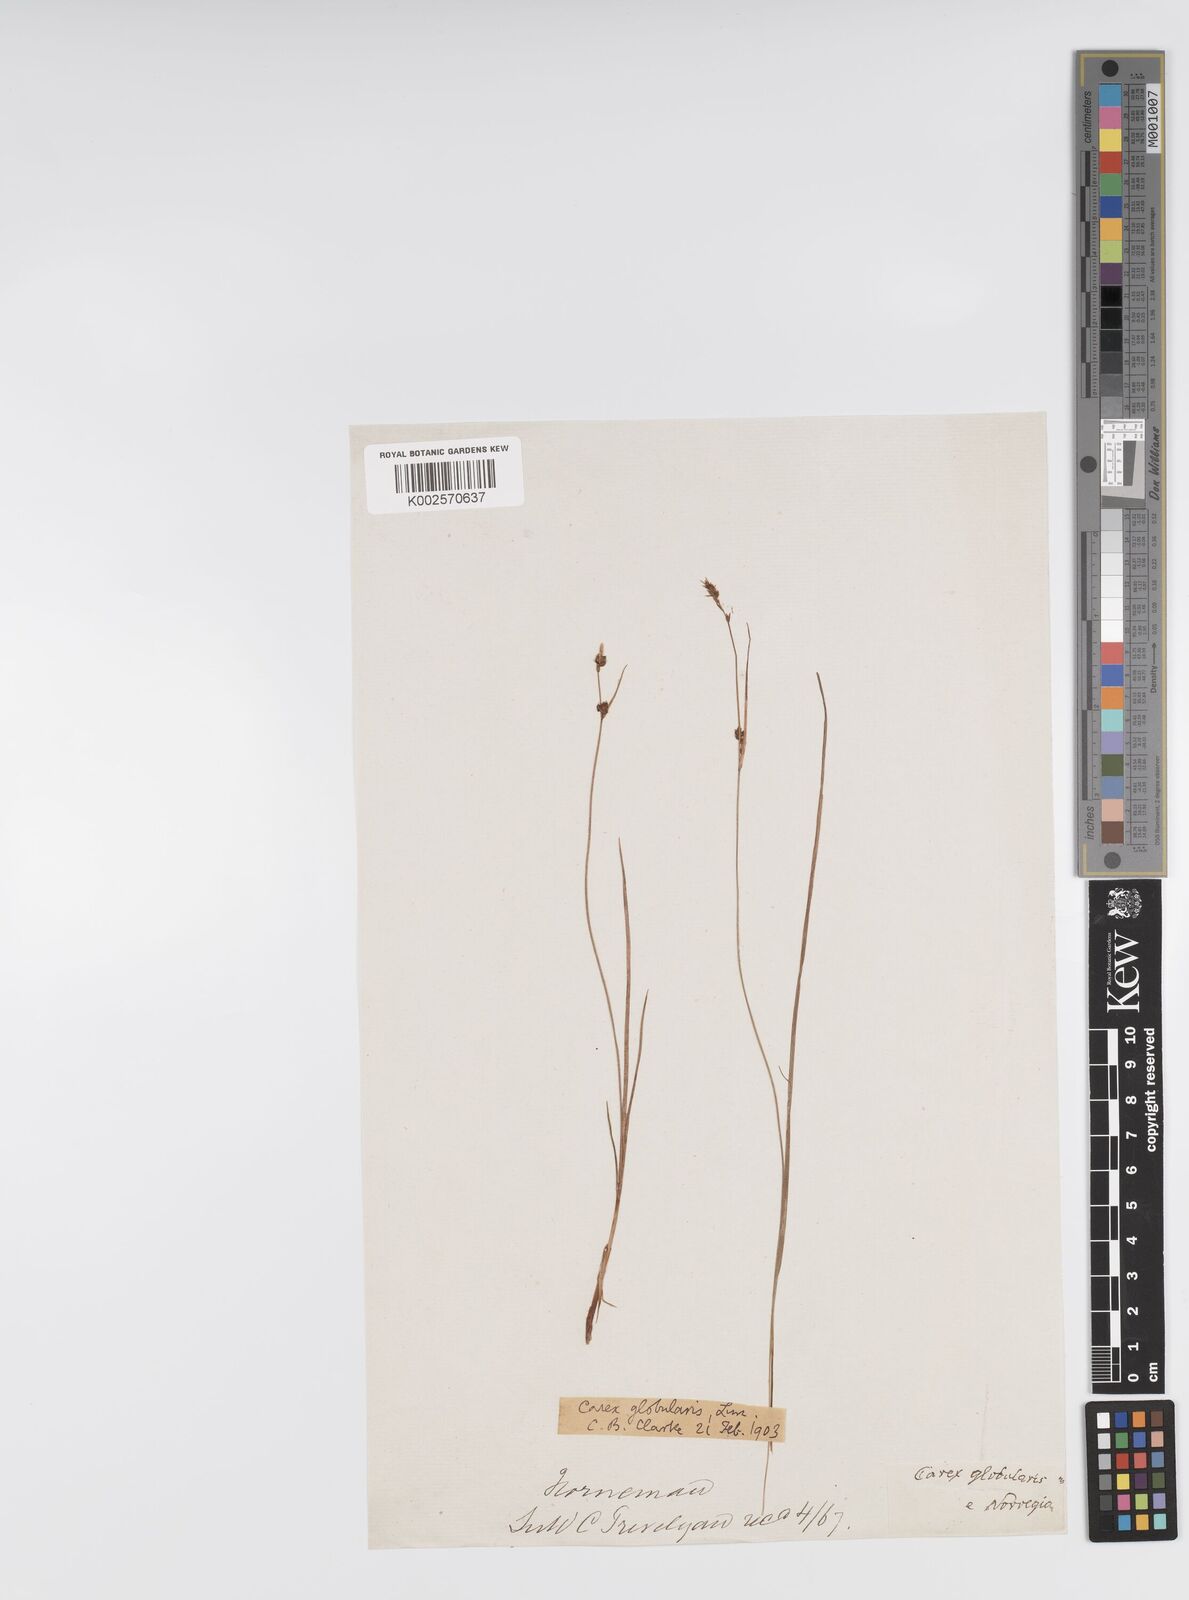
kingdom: Plantae
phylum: Tracheophyta
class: Liliopsida
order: Poales
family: Cyperaceae
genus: Carex
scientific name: Carex globularis
